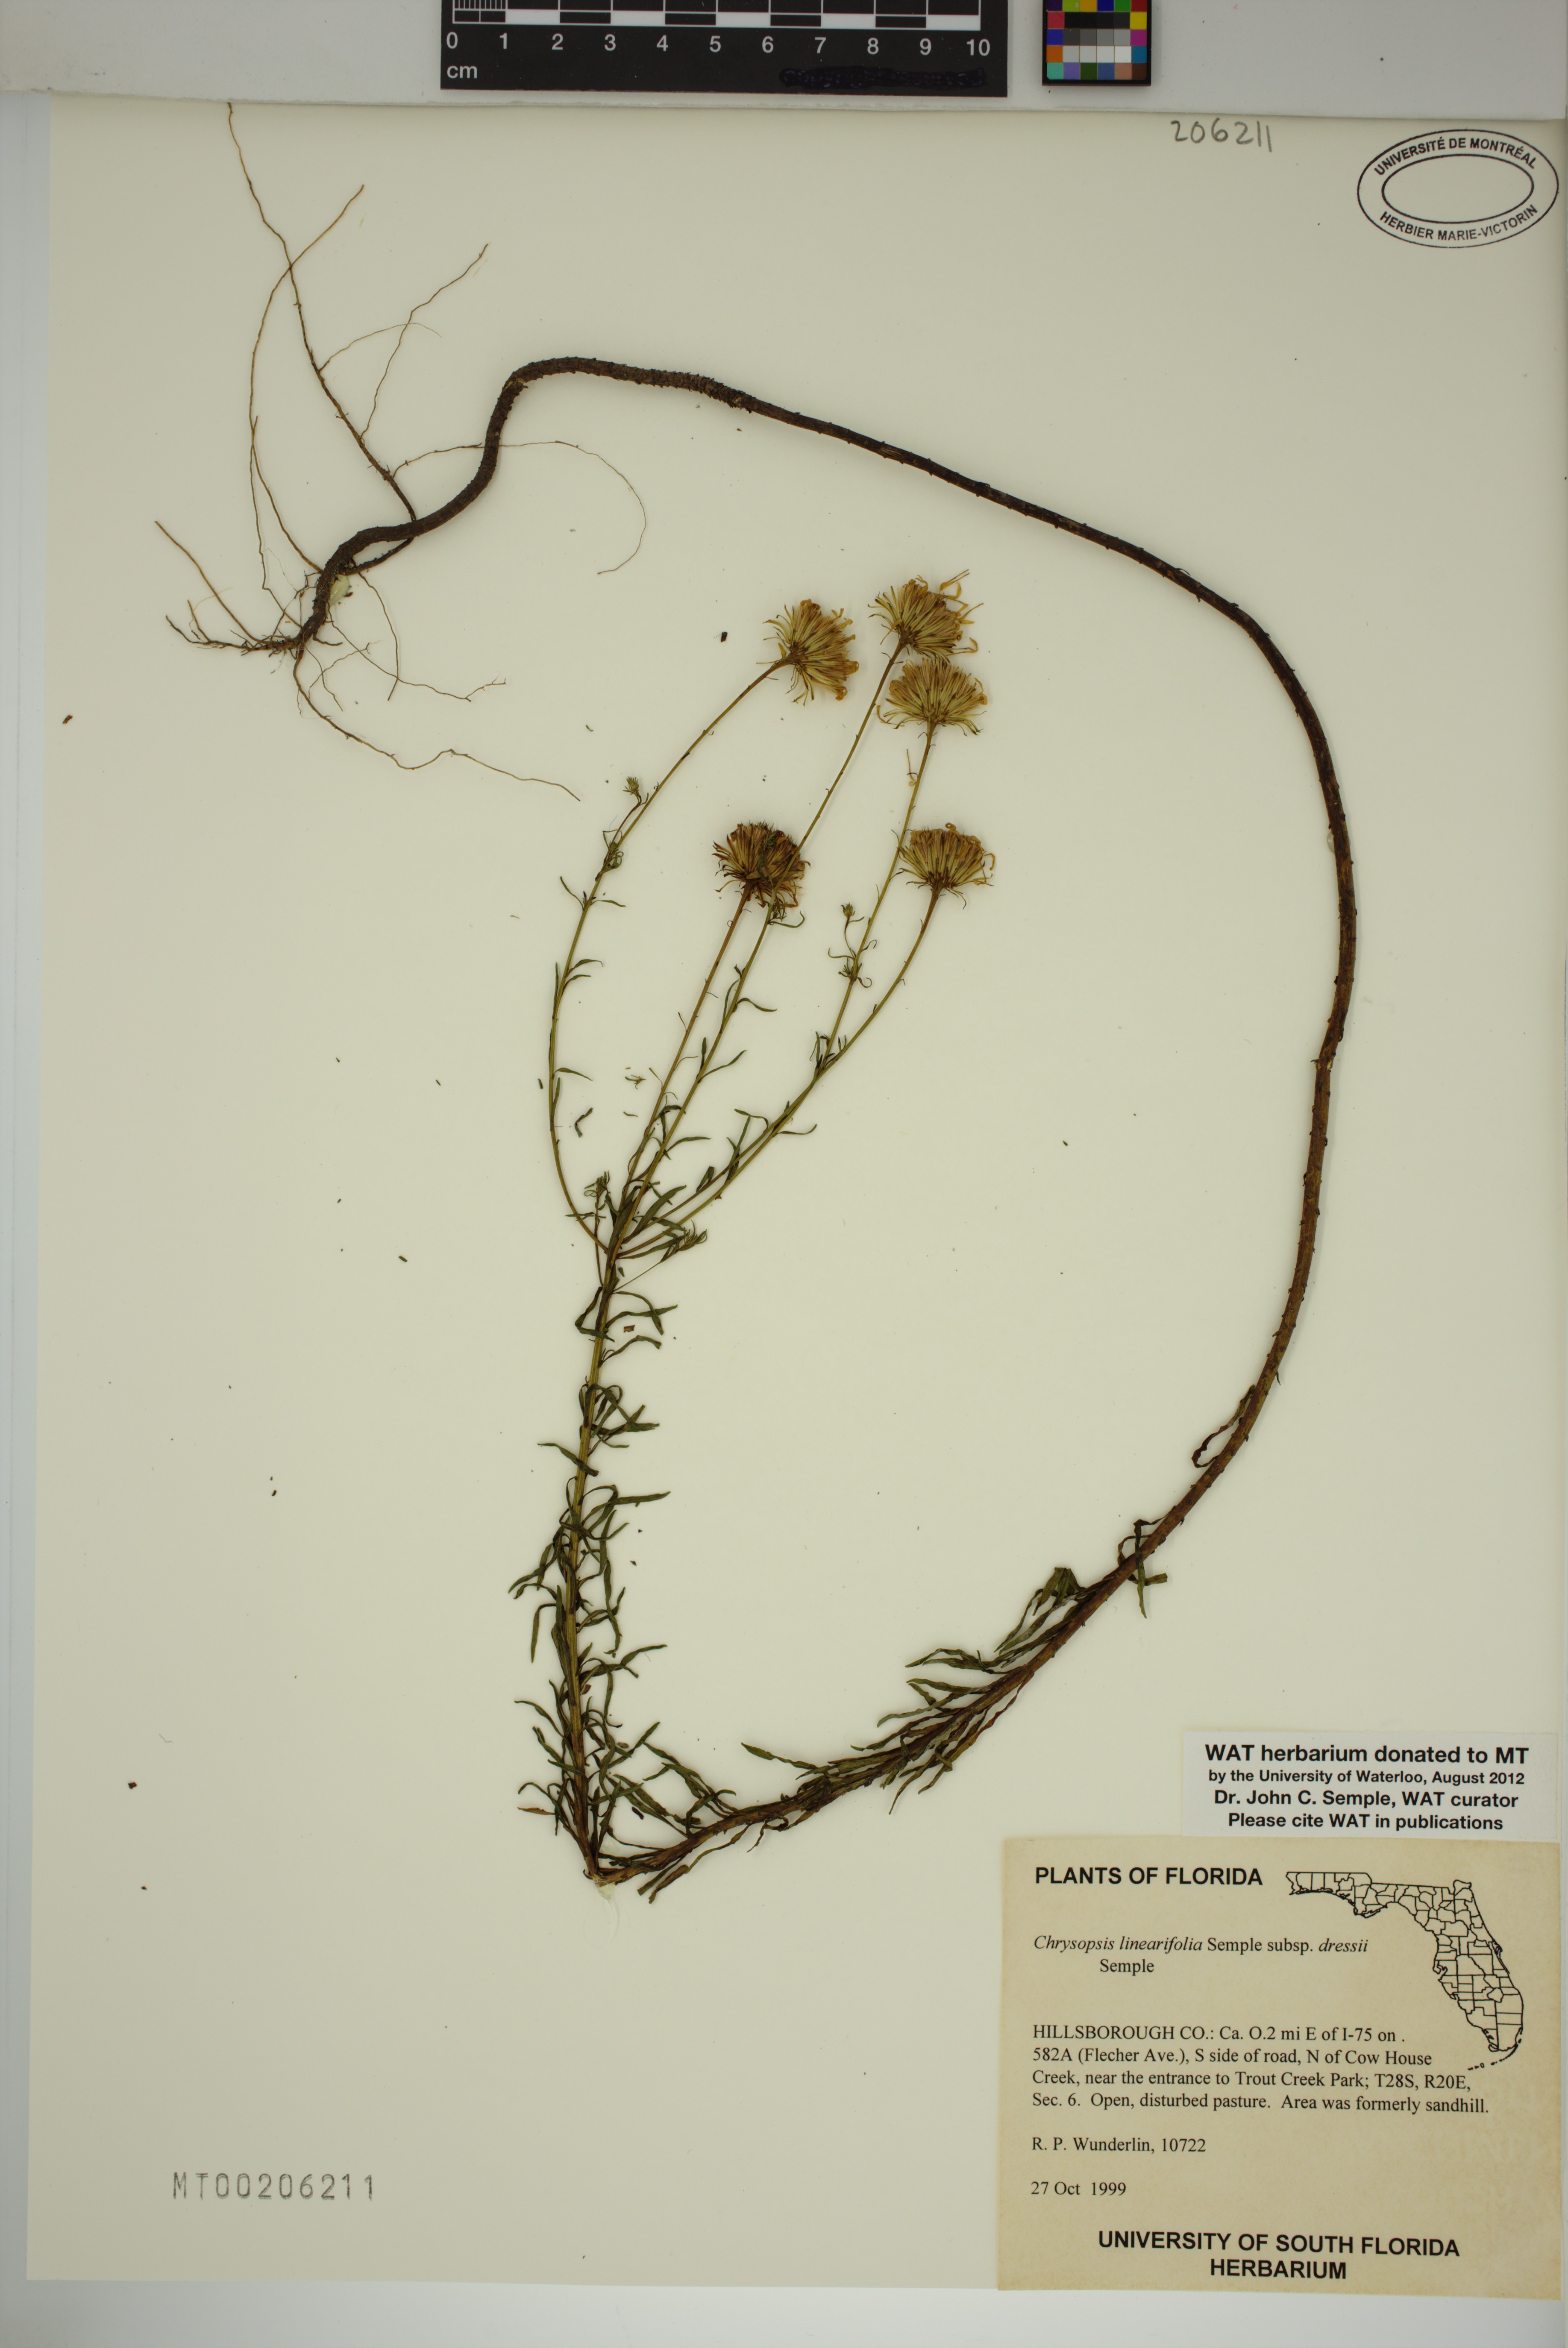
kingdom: Plantae
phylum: Tracheophyta
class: Magnoliopsida
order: Asterales
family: Asteraceae
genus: Chrysopsis
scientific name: Chrysopsis linearifolia
